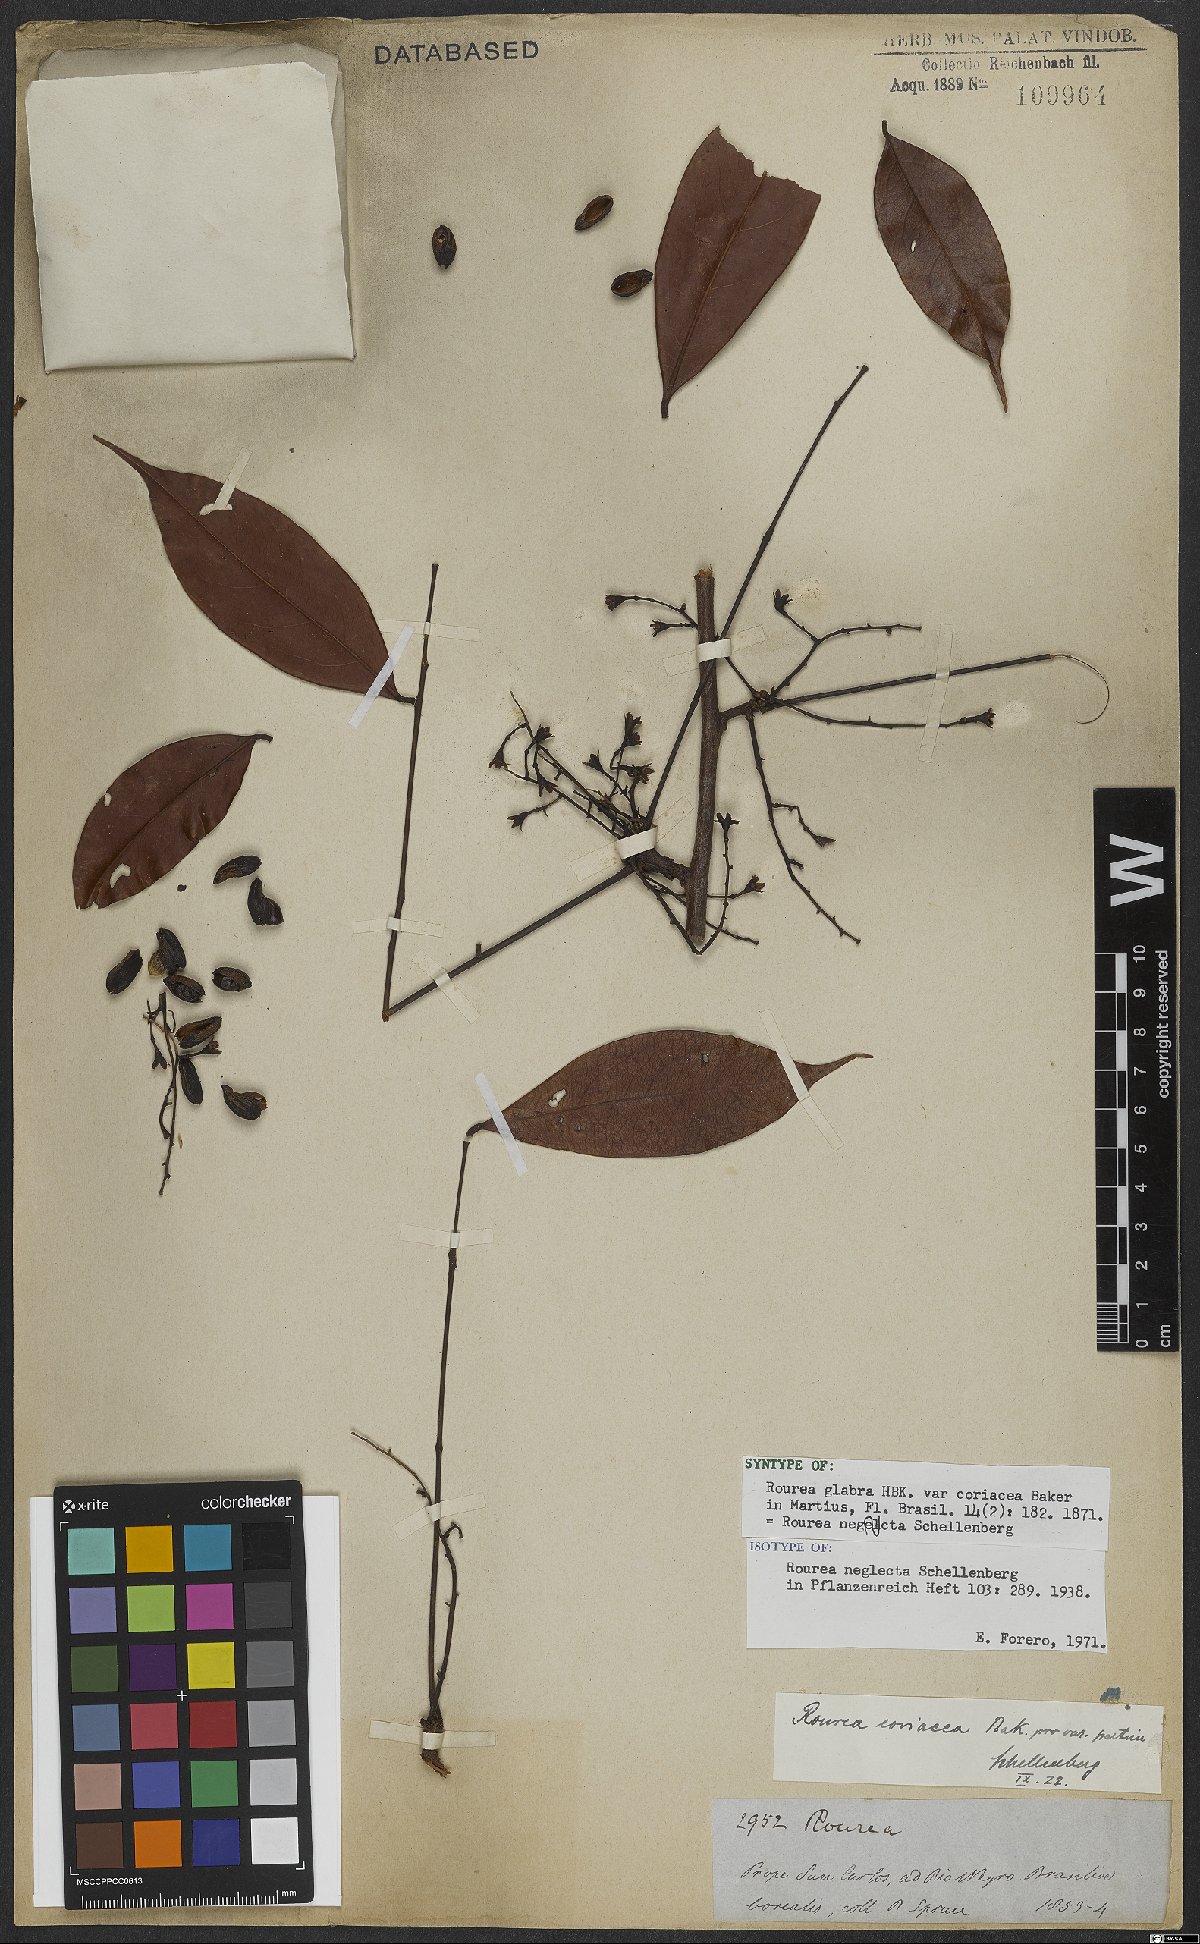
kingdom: Plantae
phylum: Tracheophyta
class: Magnoliopsida
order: Oxalidales
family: Connaraceae
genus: Rourea
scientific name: Rourea neglecta
